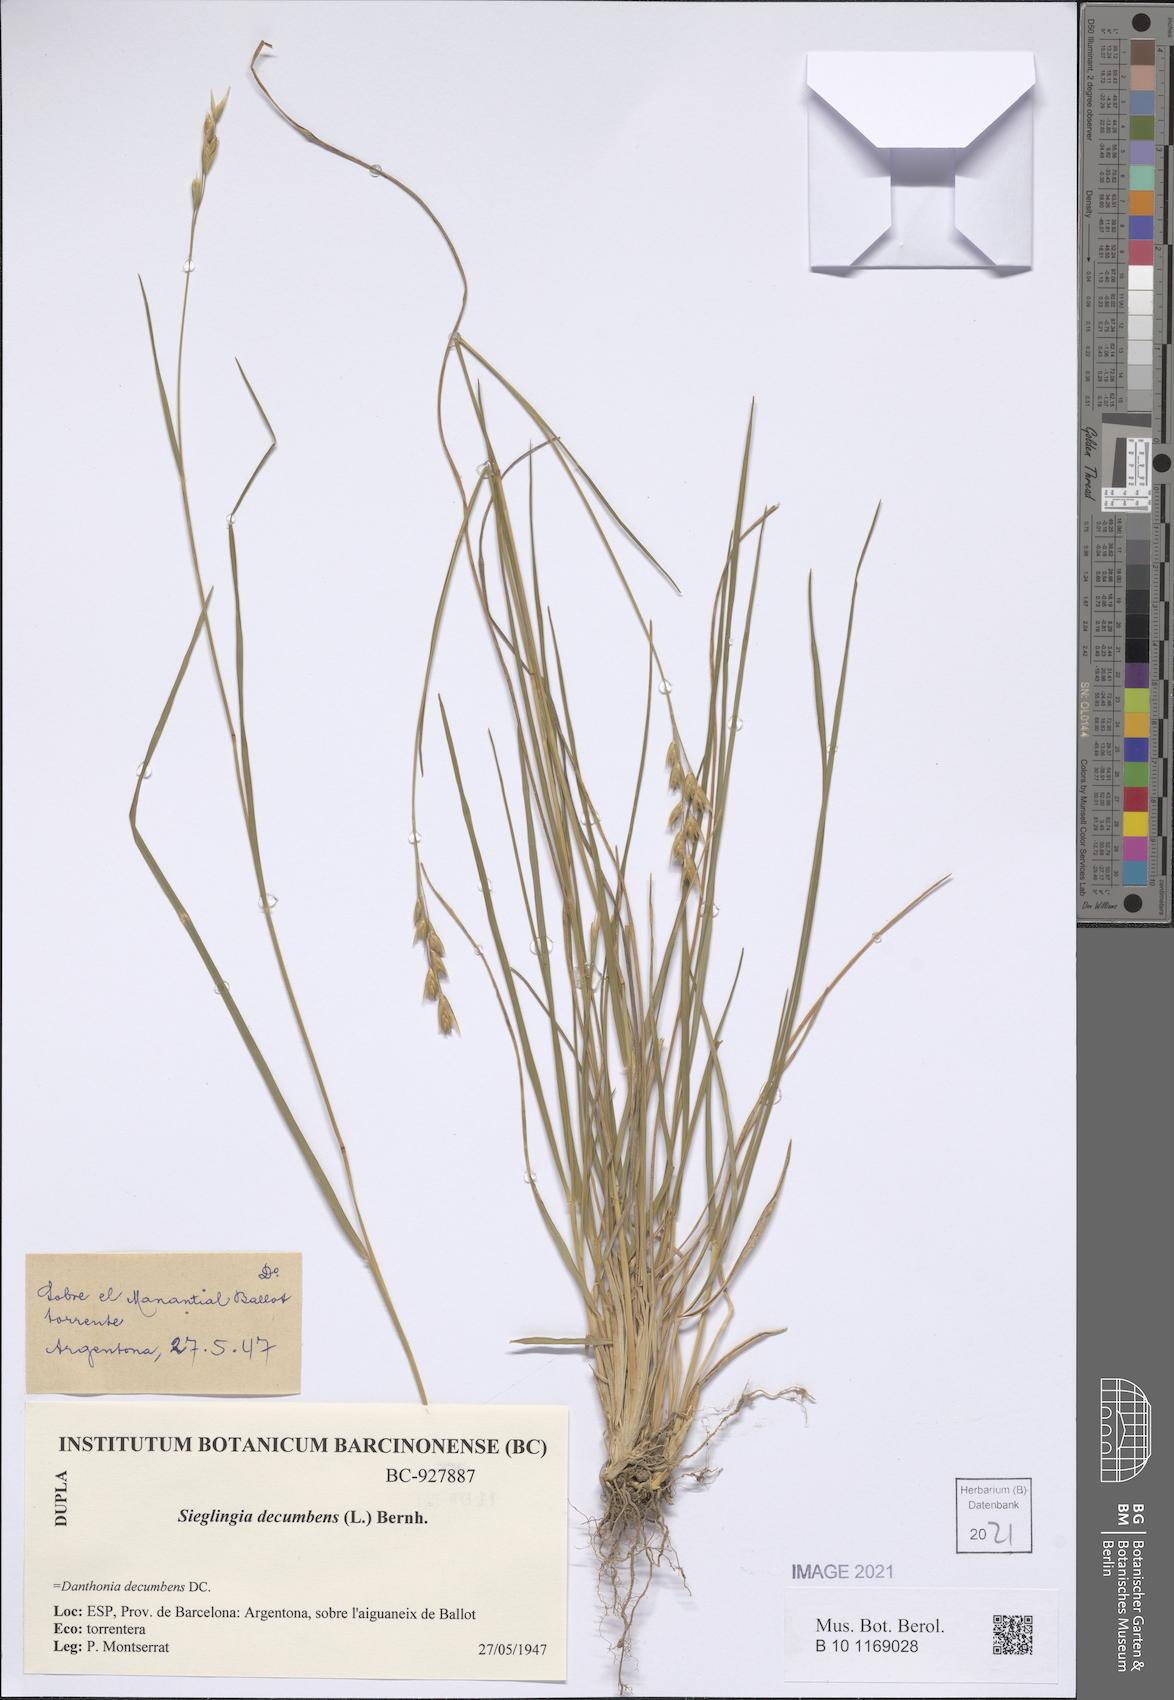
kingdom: Plantae
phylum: Tracheophyta
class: Liliopsida
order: Poales
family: Poaceae
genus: Danthonia
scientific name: Danthonia decumbens
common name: Common heathgrass
